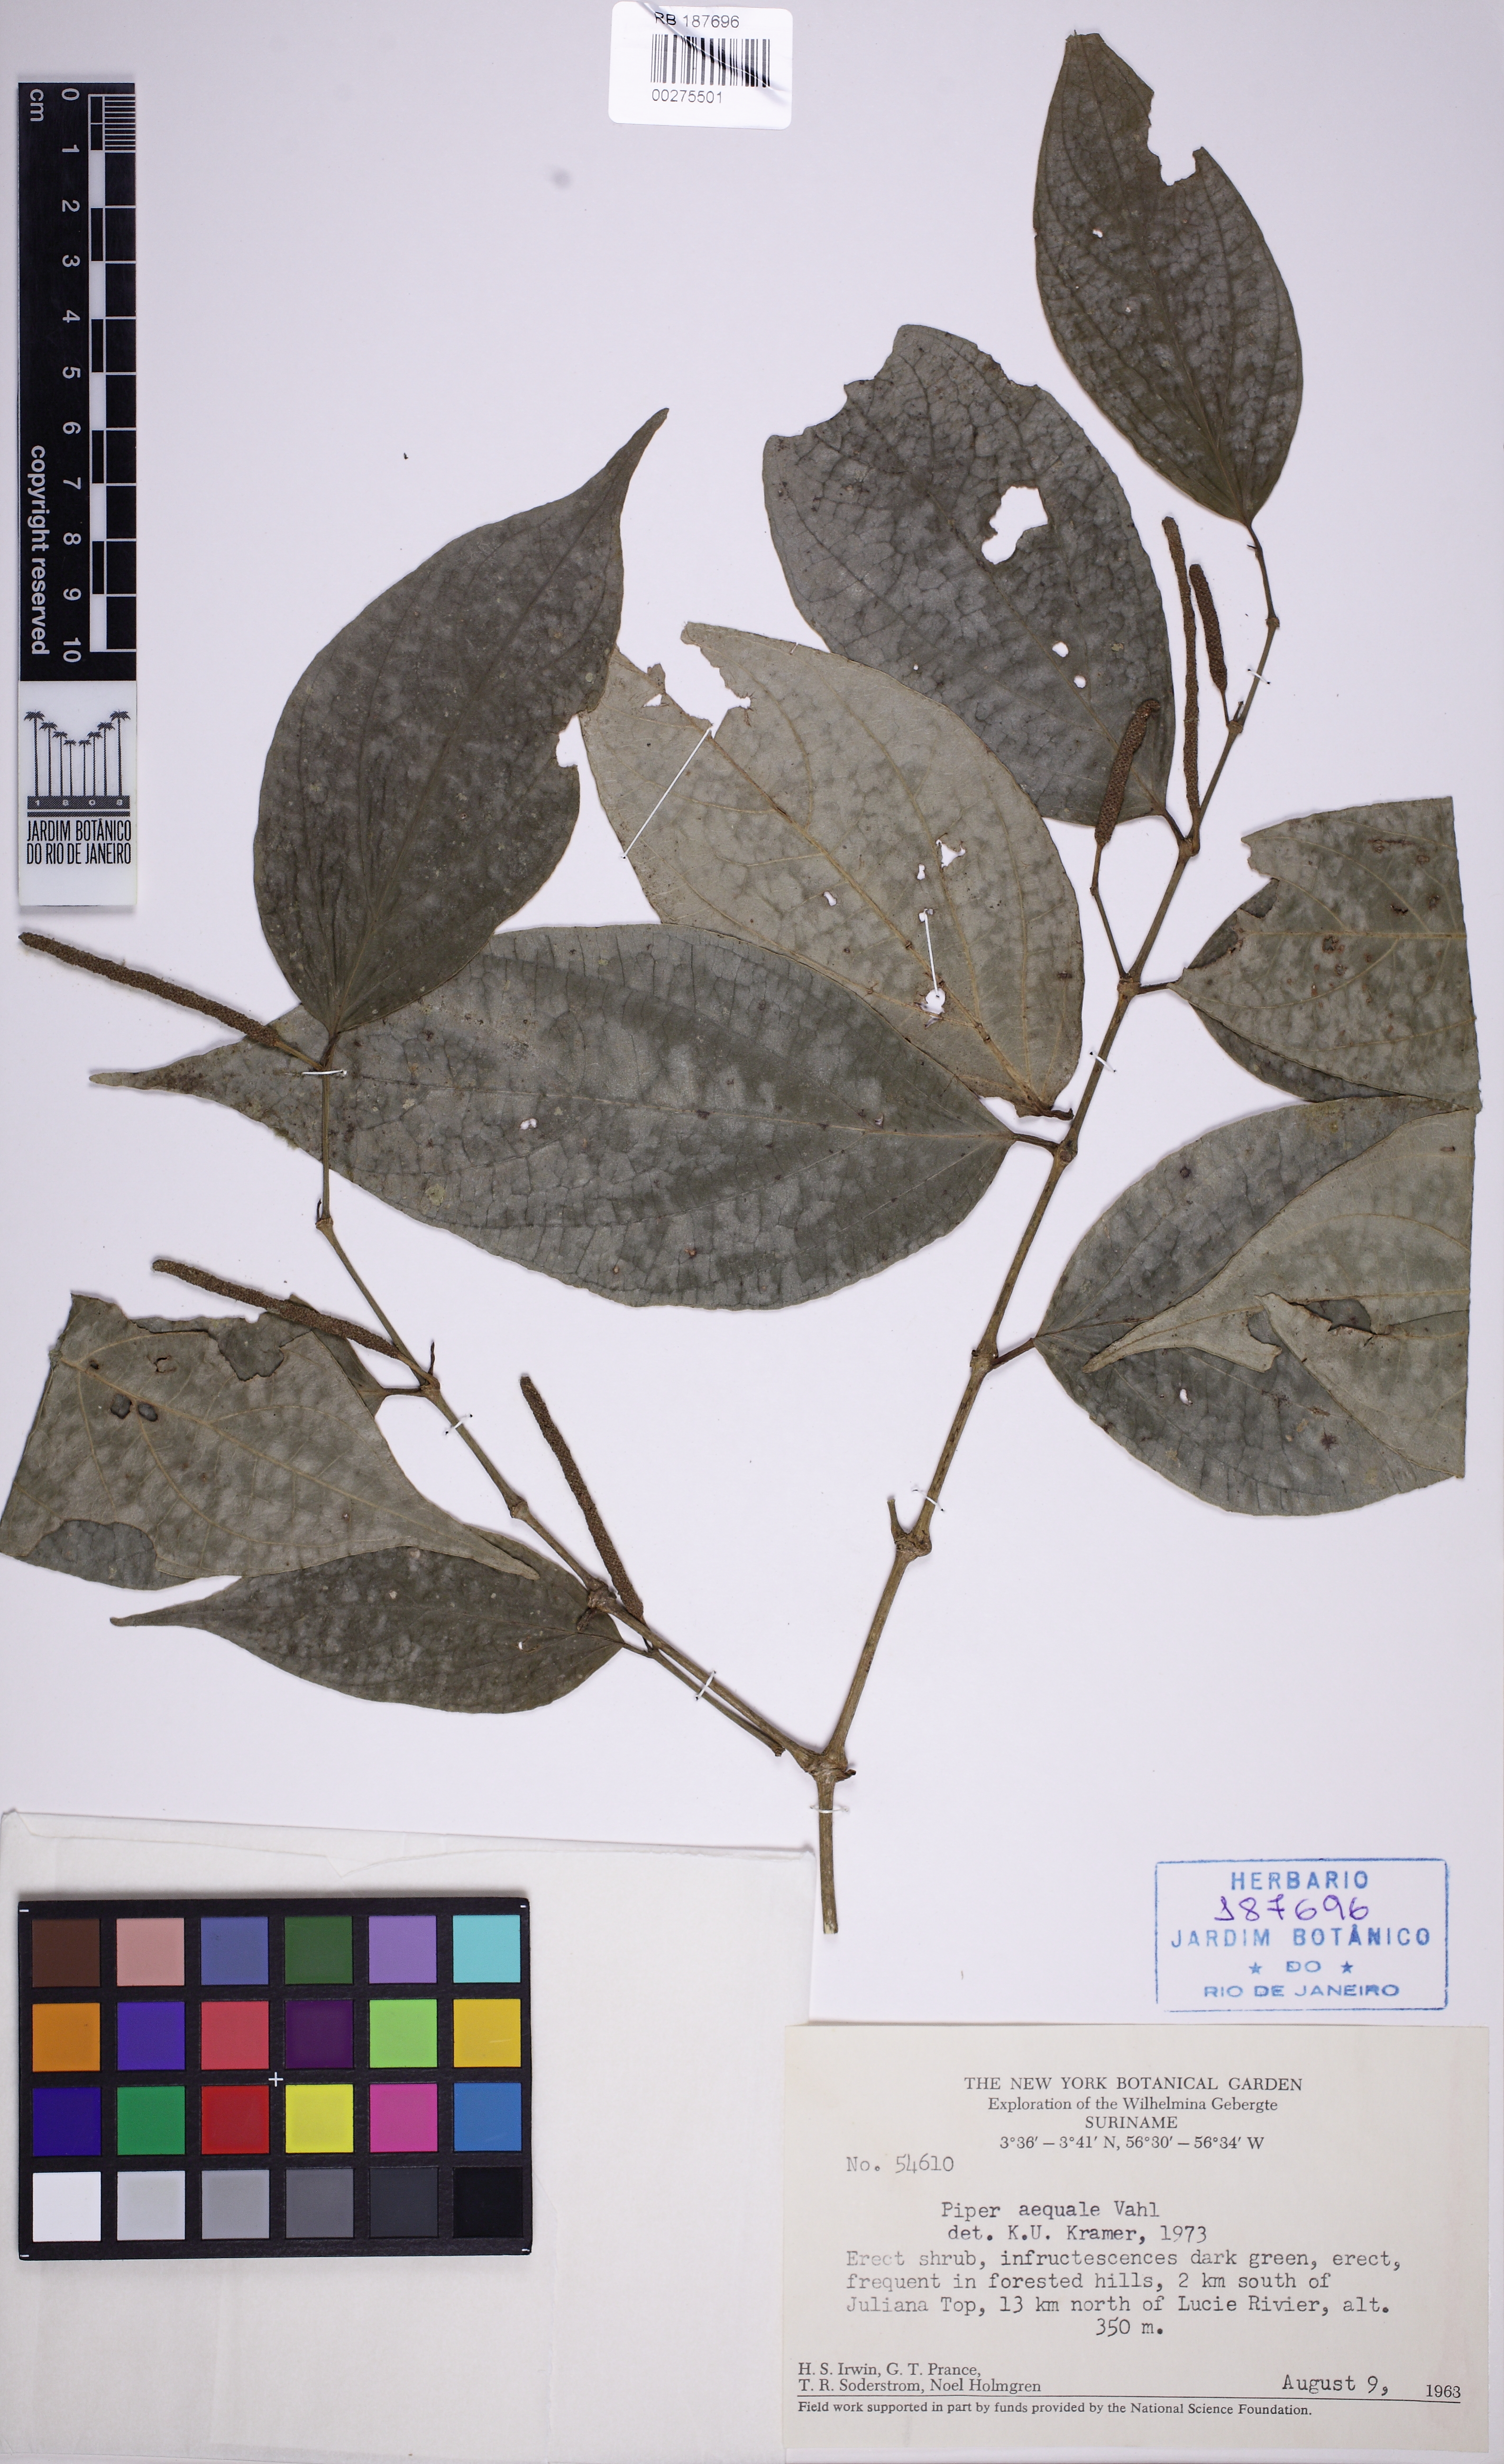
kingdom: Plantae
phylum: Tracheophyta
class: Magnoliopsida
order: Piperales
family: Piperaceae
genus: Piper
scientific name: Piper aequale
